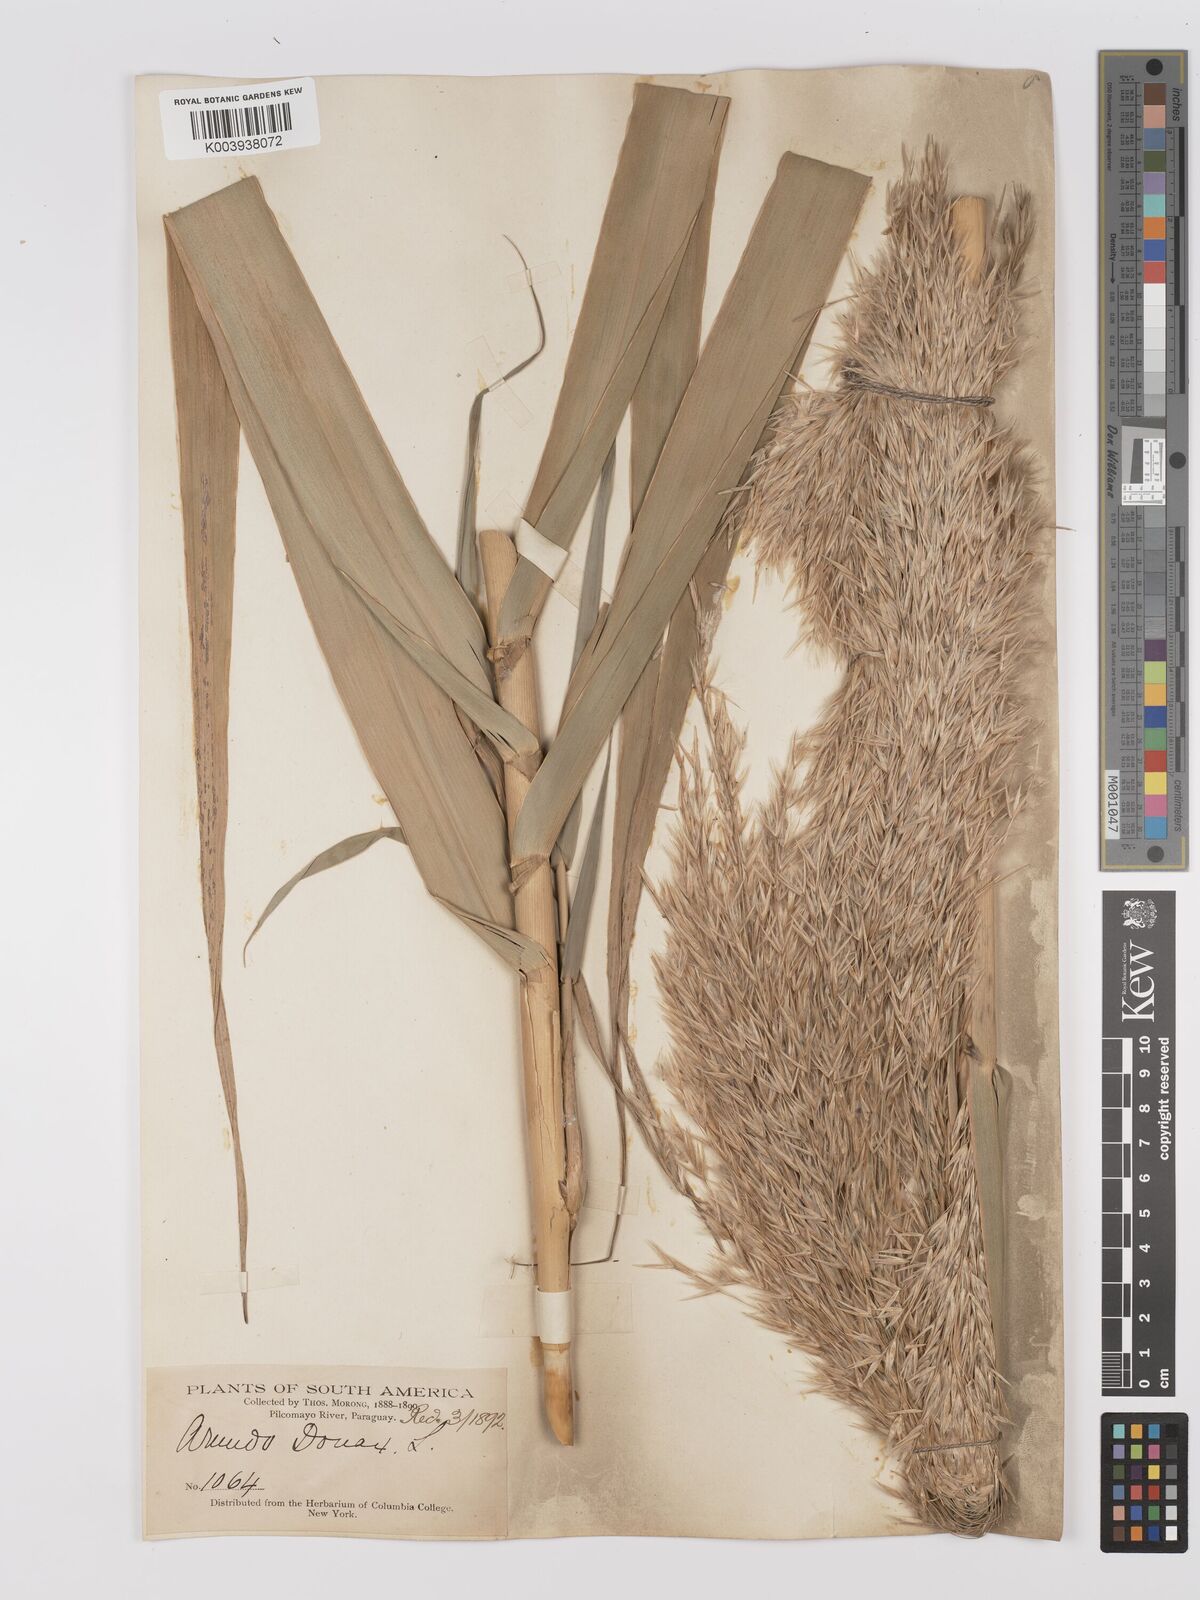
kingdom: Plantae
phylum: Tracheophyta
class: Liliopsida
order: Poales
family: Poaceae
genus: Arundo
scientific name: Arundo donax
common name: Giant reed
